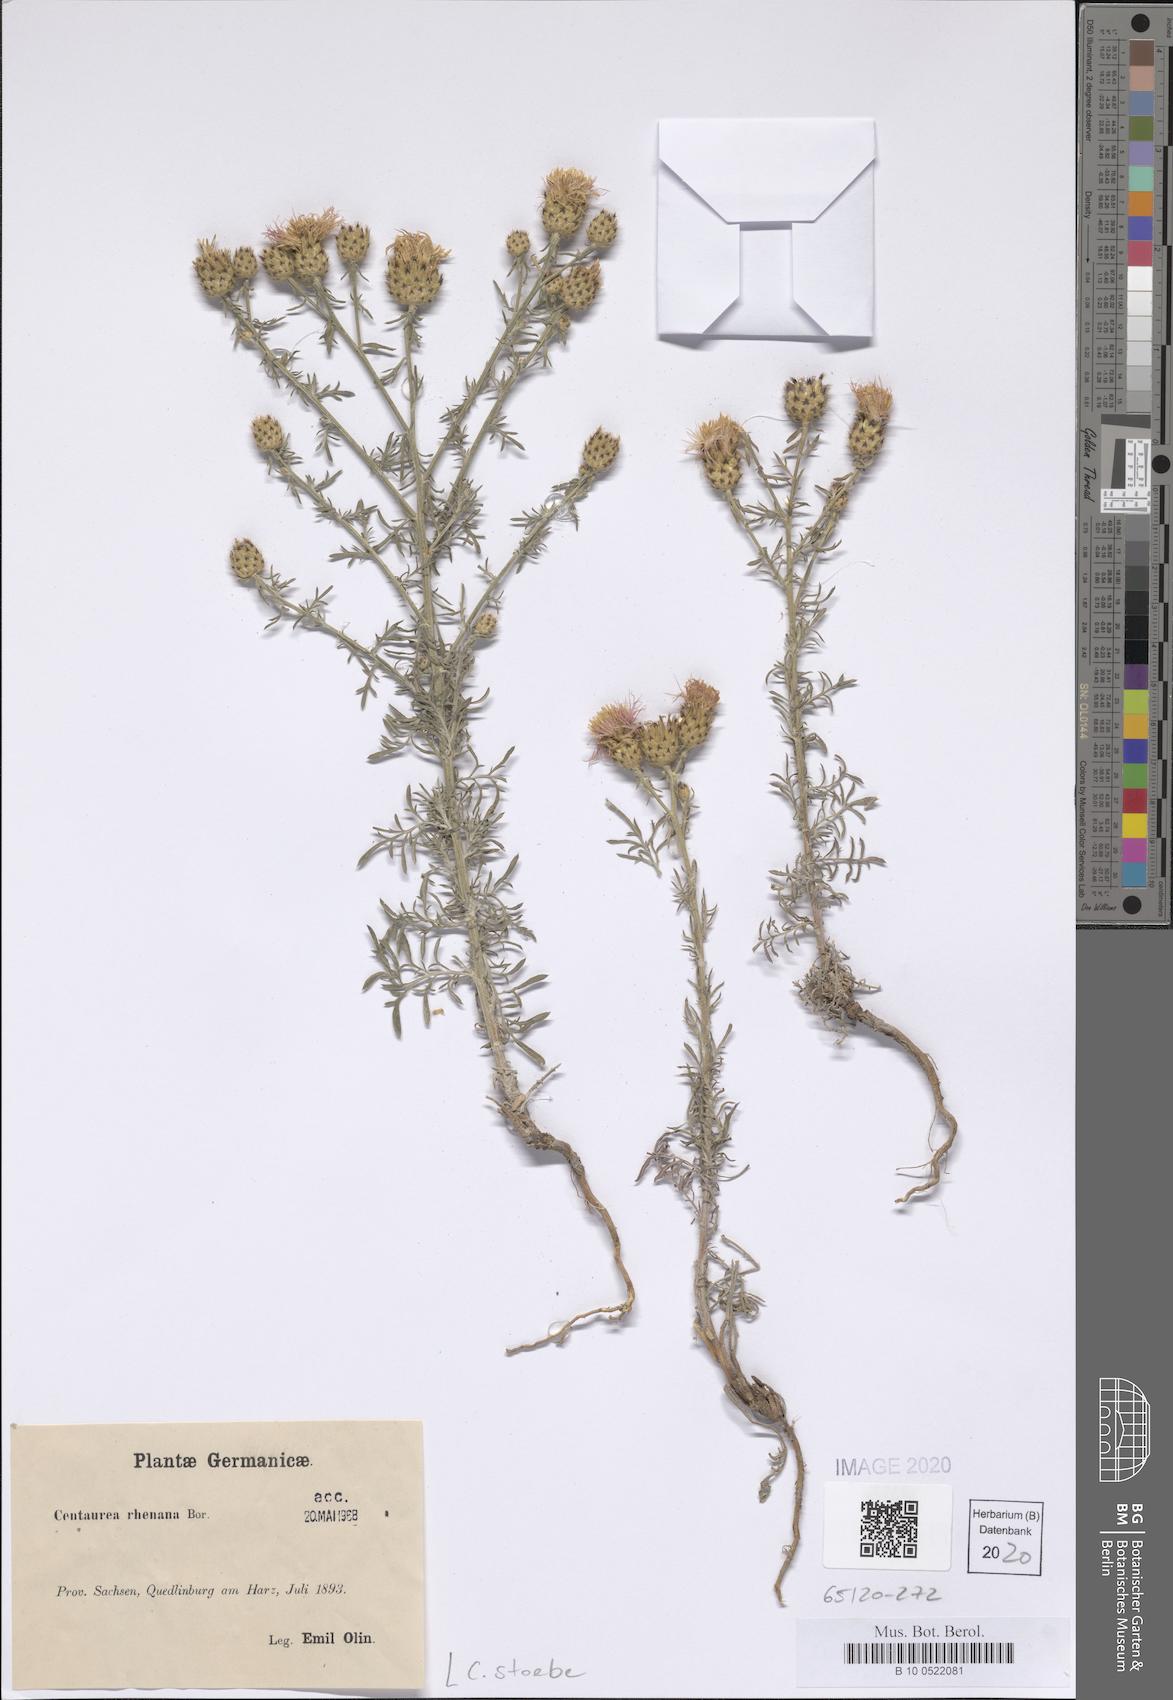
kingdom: Plantae
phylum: Tracheophyta
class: Magnoliopsida
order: Asterales
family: Asteraceae
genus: Centaurea
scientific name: Centaurea stoebe
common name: Spotted knapweed
